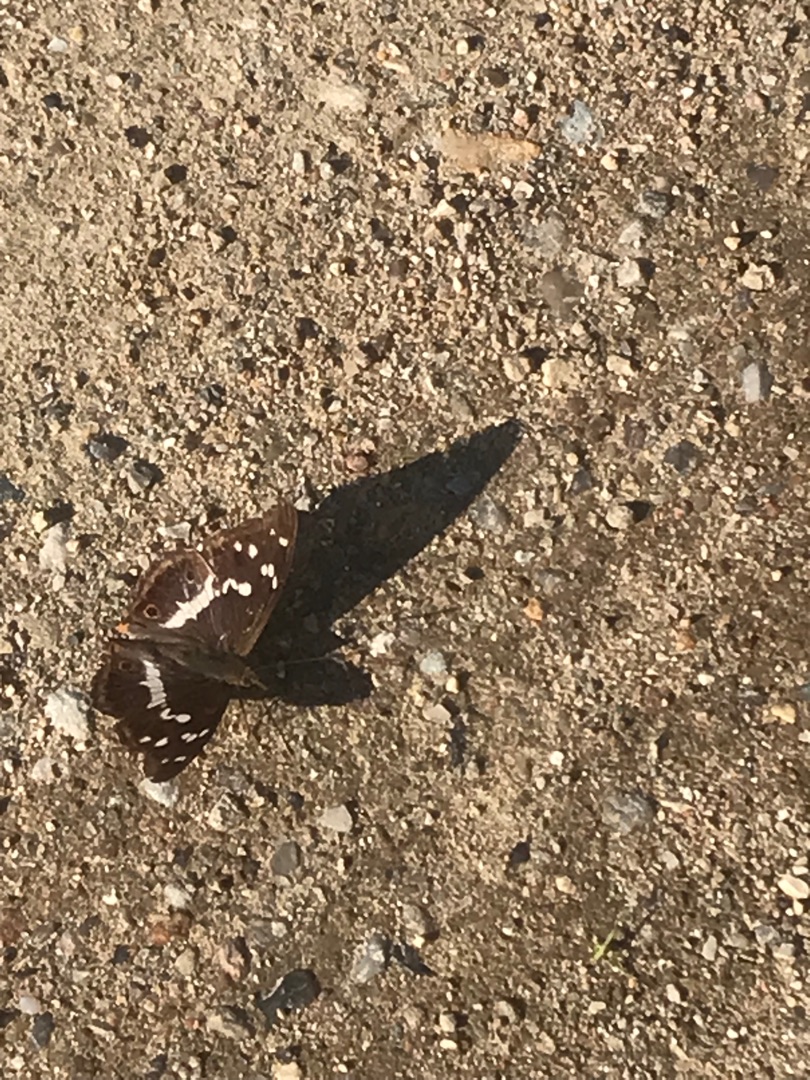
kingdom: Animalia
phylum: Arthropoda
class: Insecta
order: Lepidoptera
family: Nymphalidae
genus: Apatura
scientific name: Apatura iris
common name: Iris
